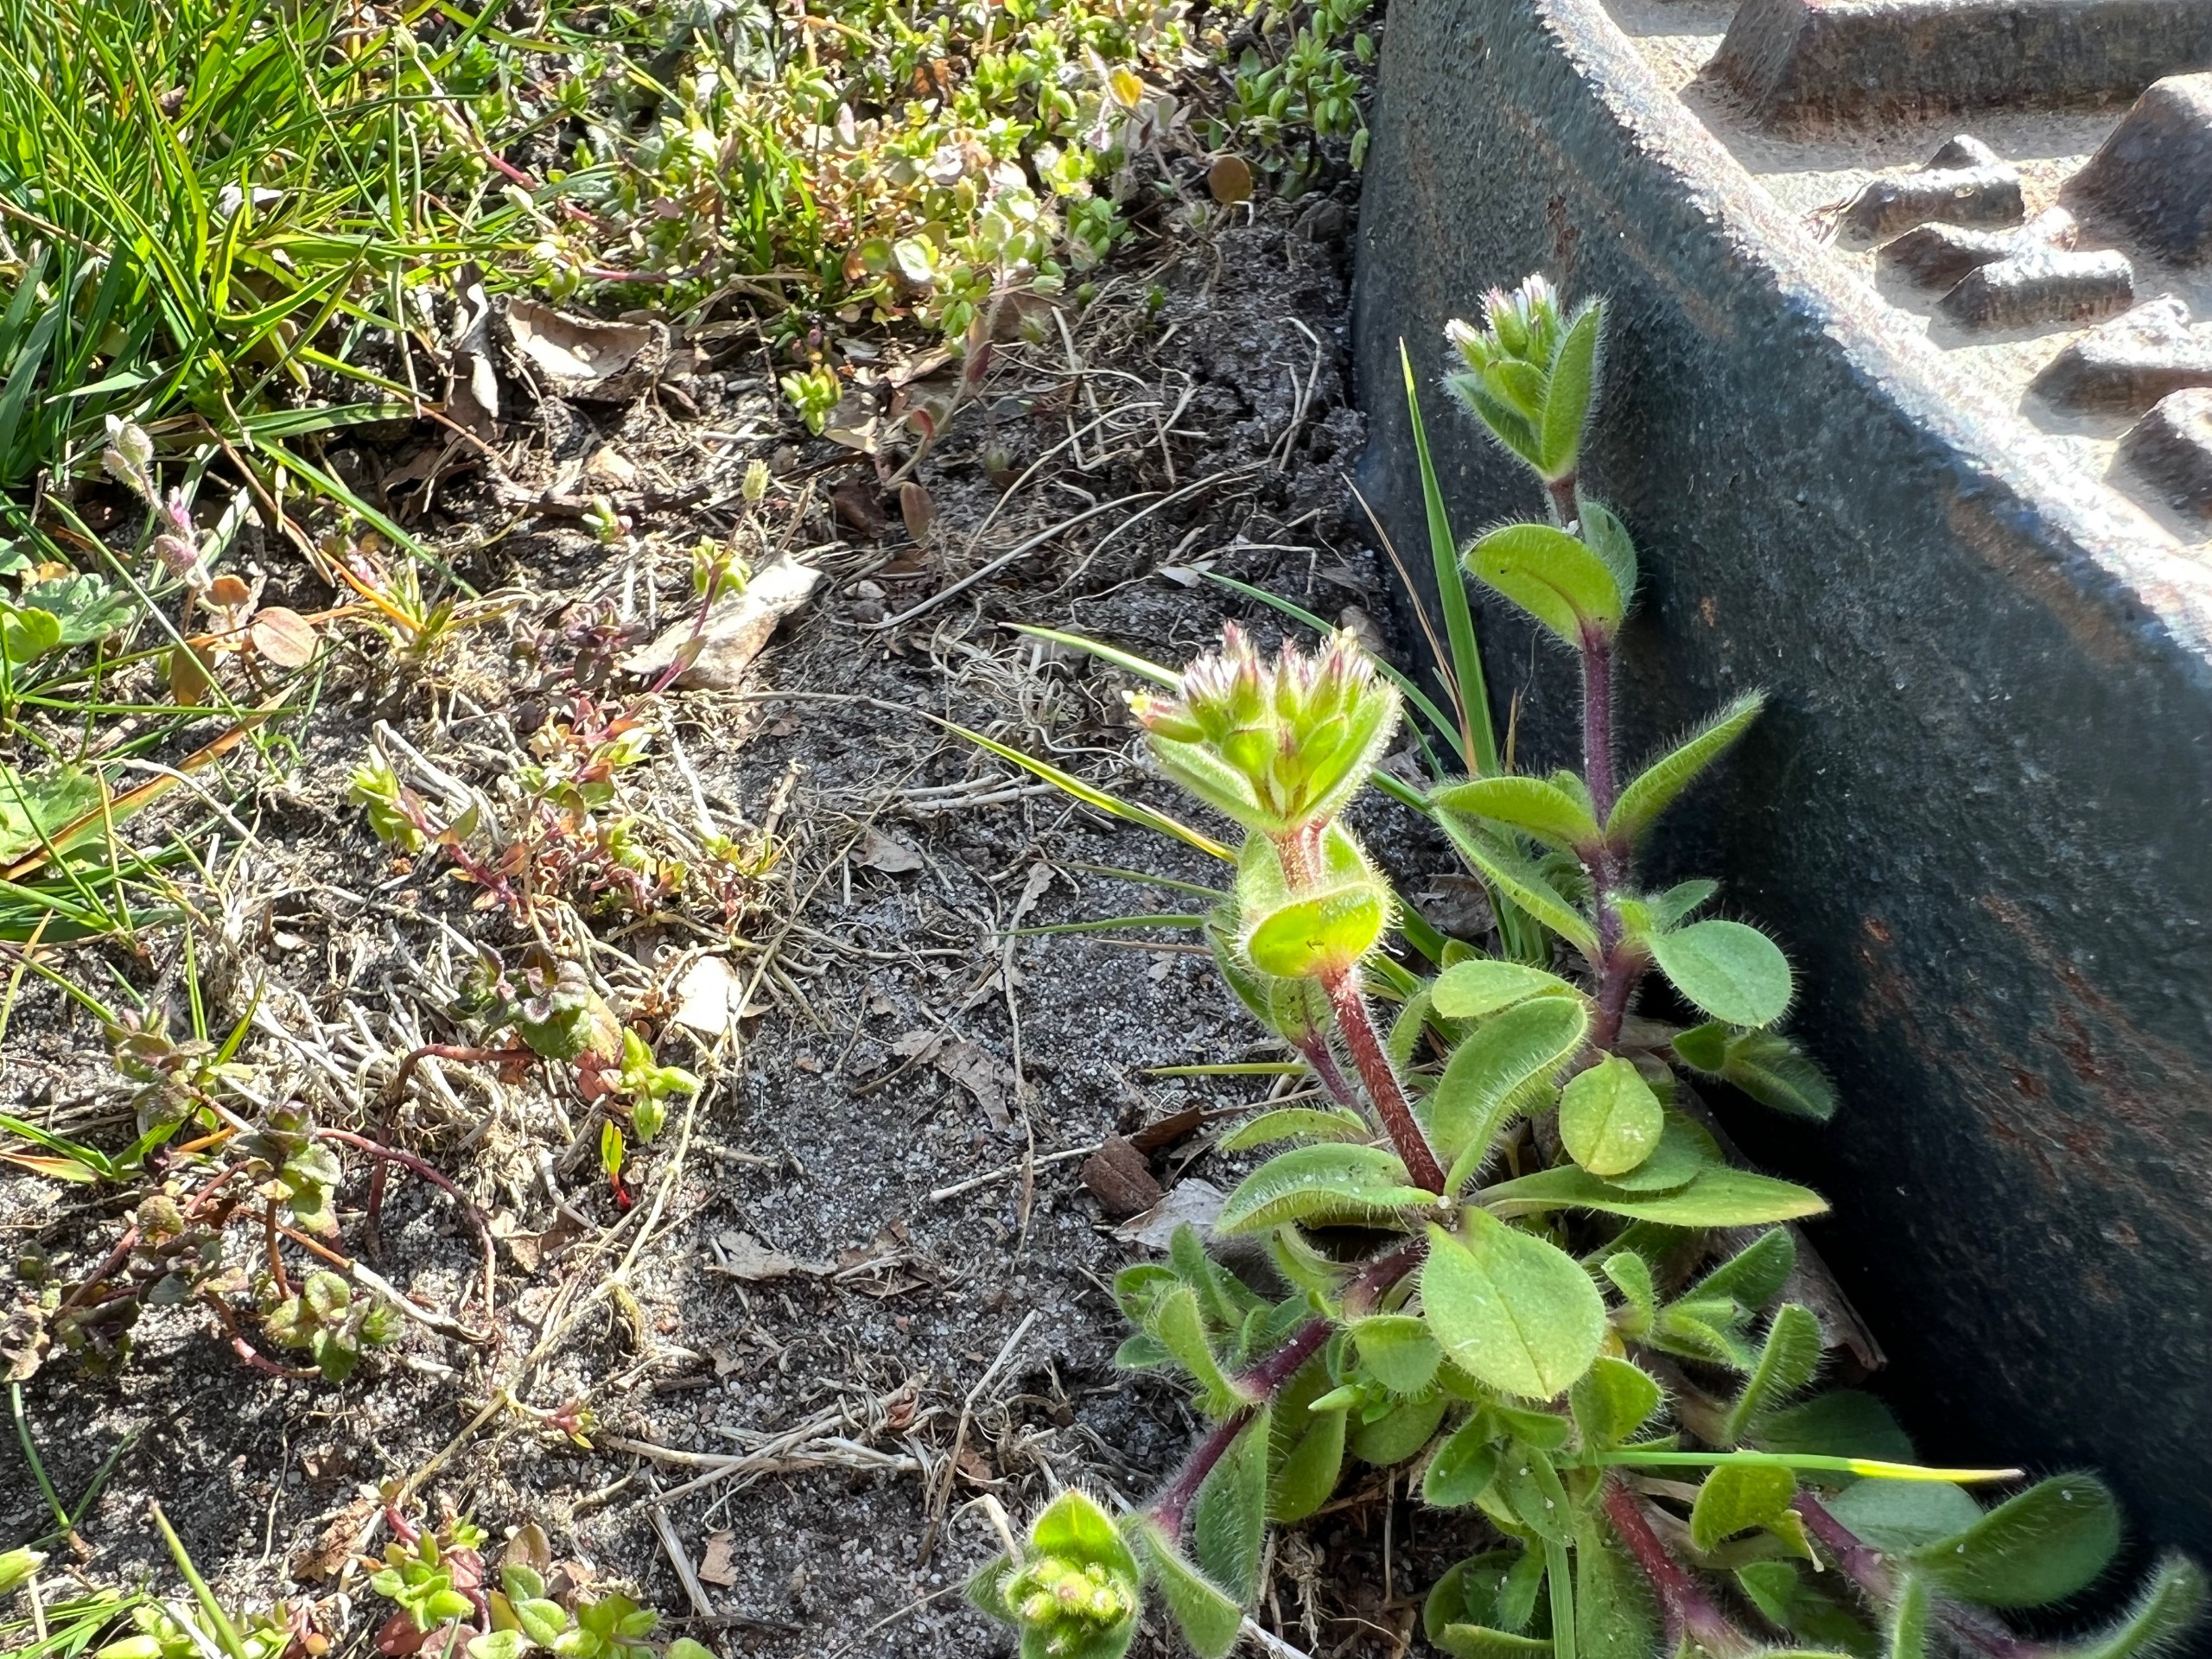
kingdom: Plantae
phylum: Tracheophyta
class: Magnoliopsida
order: Caryophyllales
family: Caryophyllaceae
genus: Cerastium
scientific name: Cerastium glomeratum
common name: Opret hønsetarm
